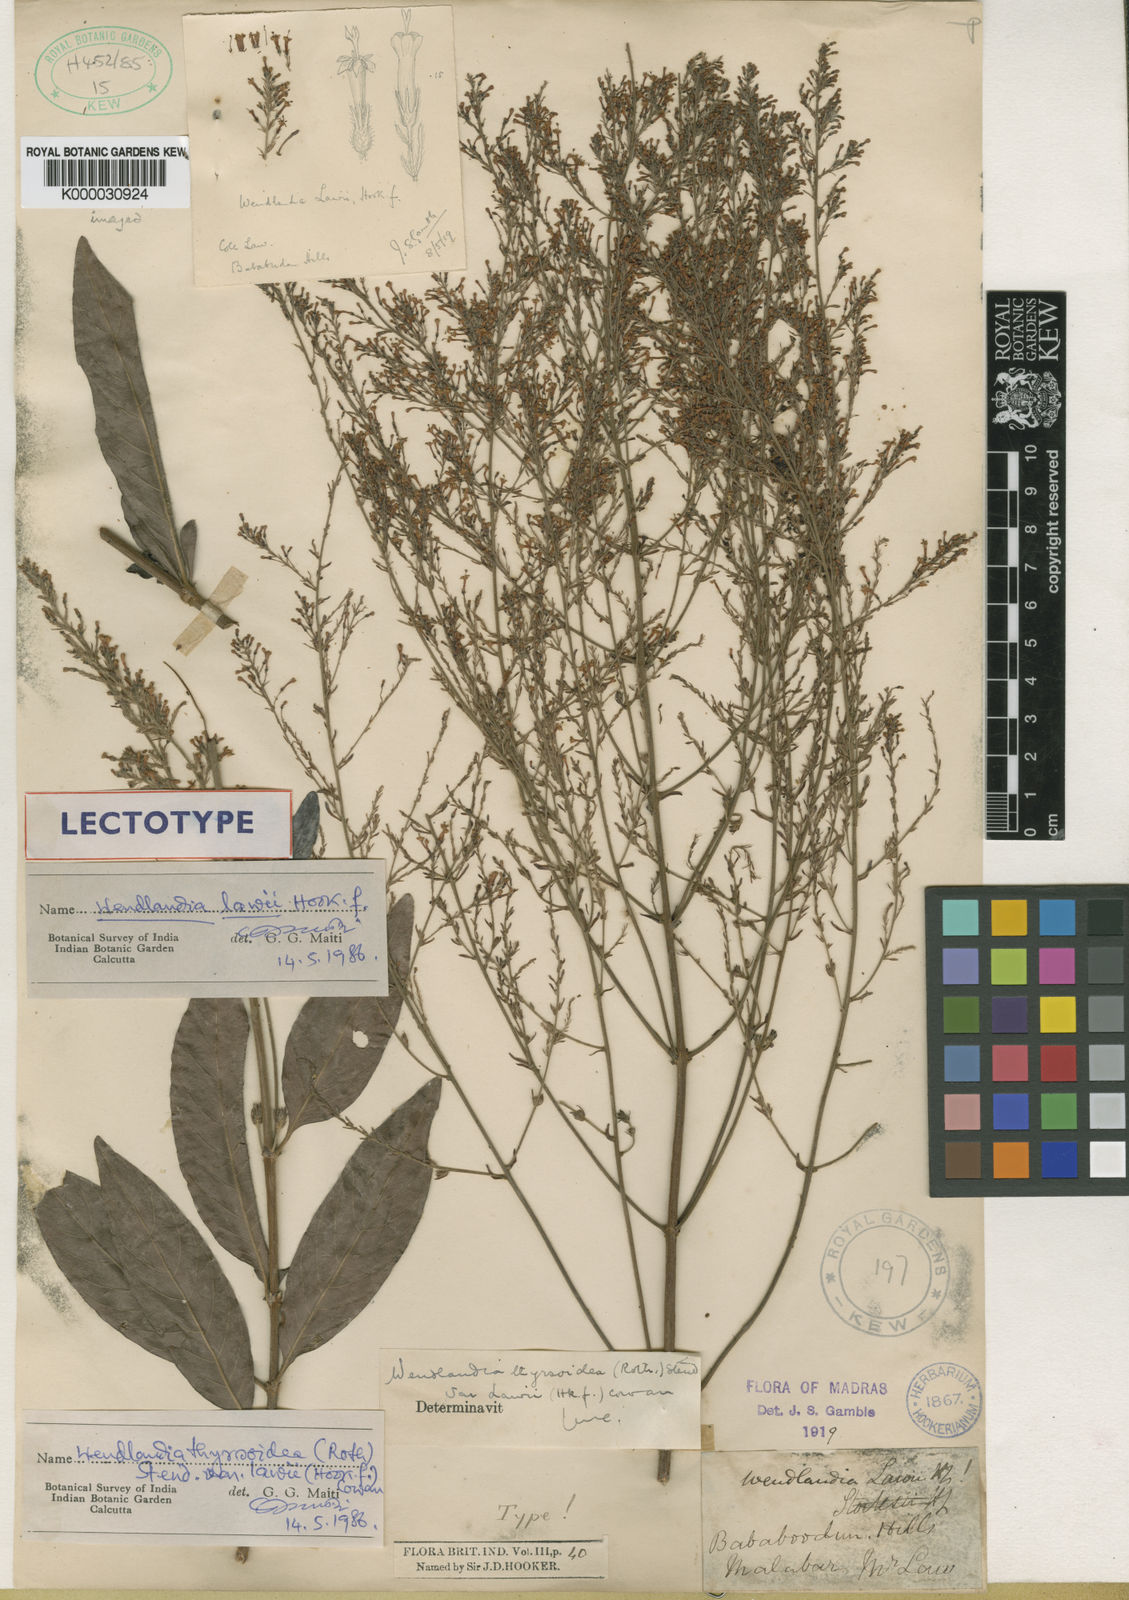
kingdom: Plantae
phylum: Tracheophyta
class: Magnoliopsida
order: Gentianales
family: Rubiaceae
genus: Wendlandia
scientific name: Wendlandia thyrsoidea
